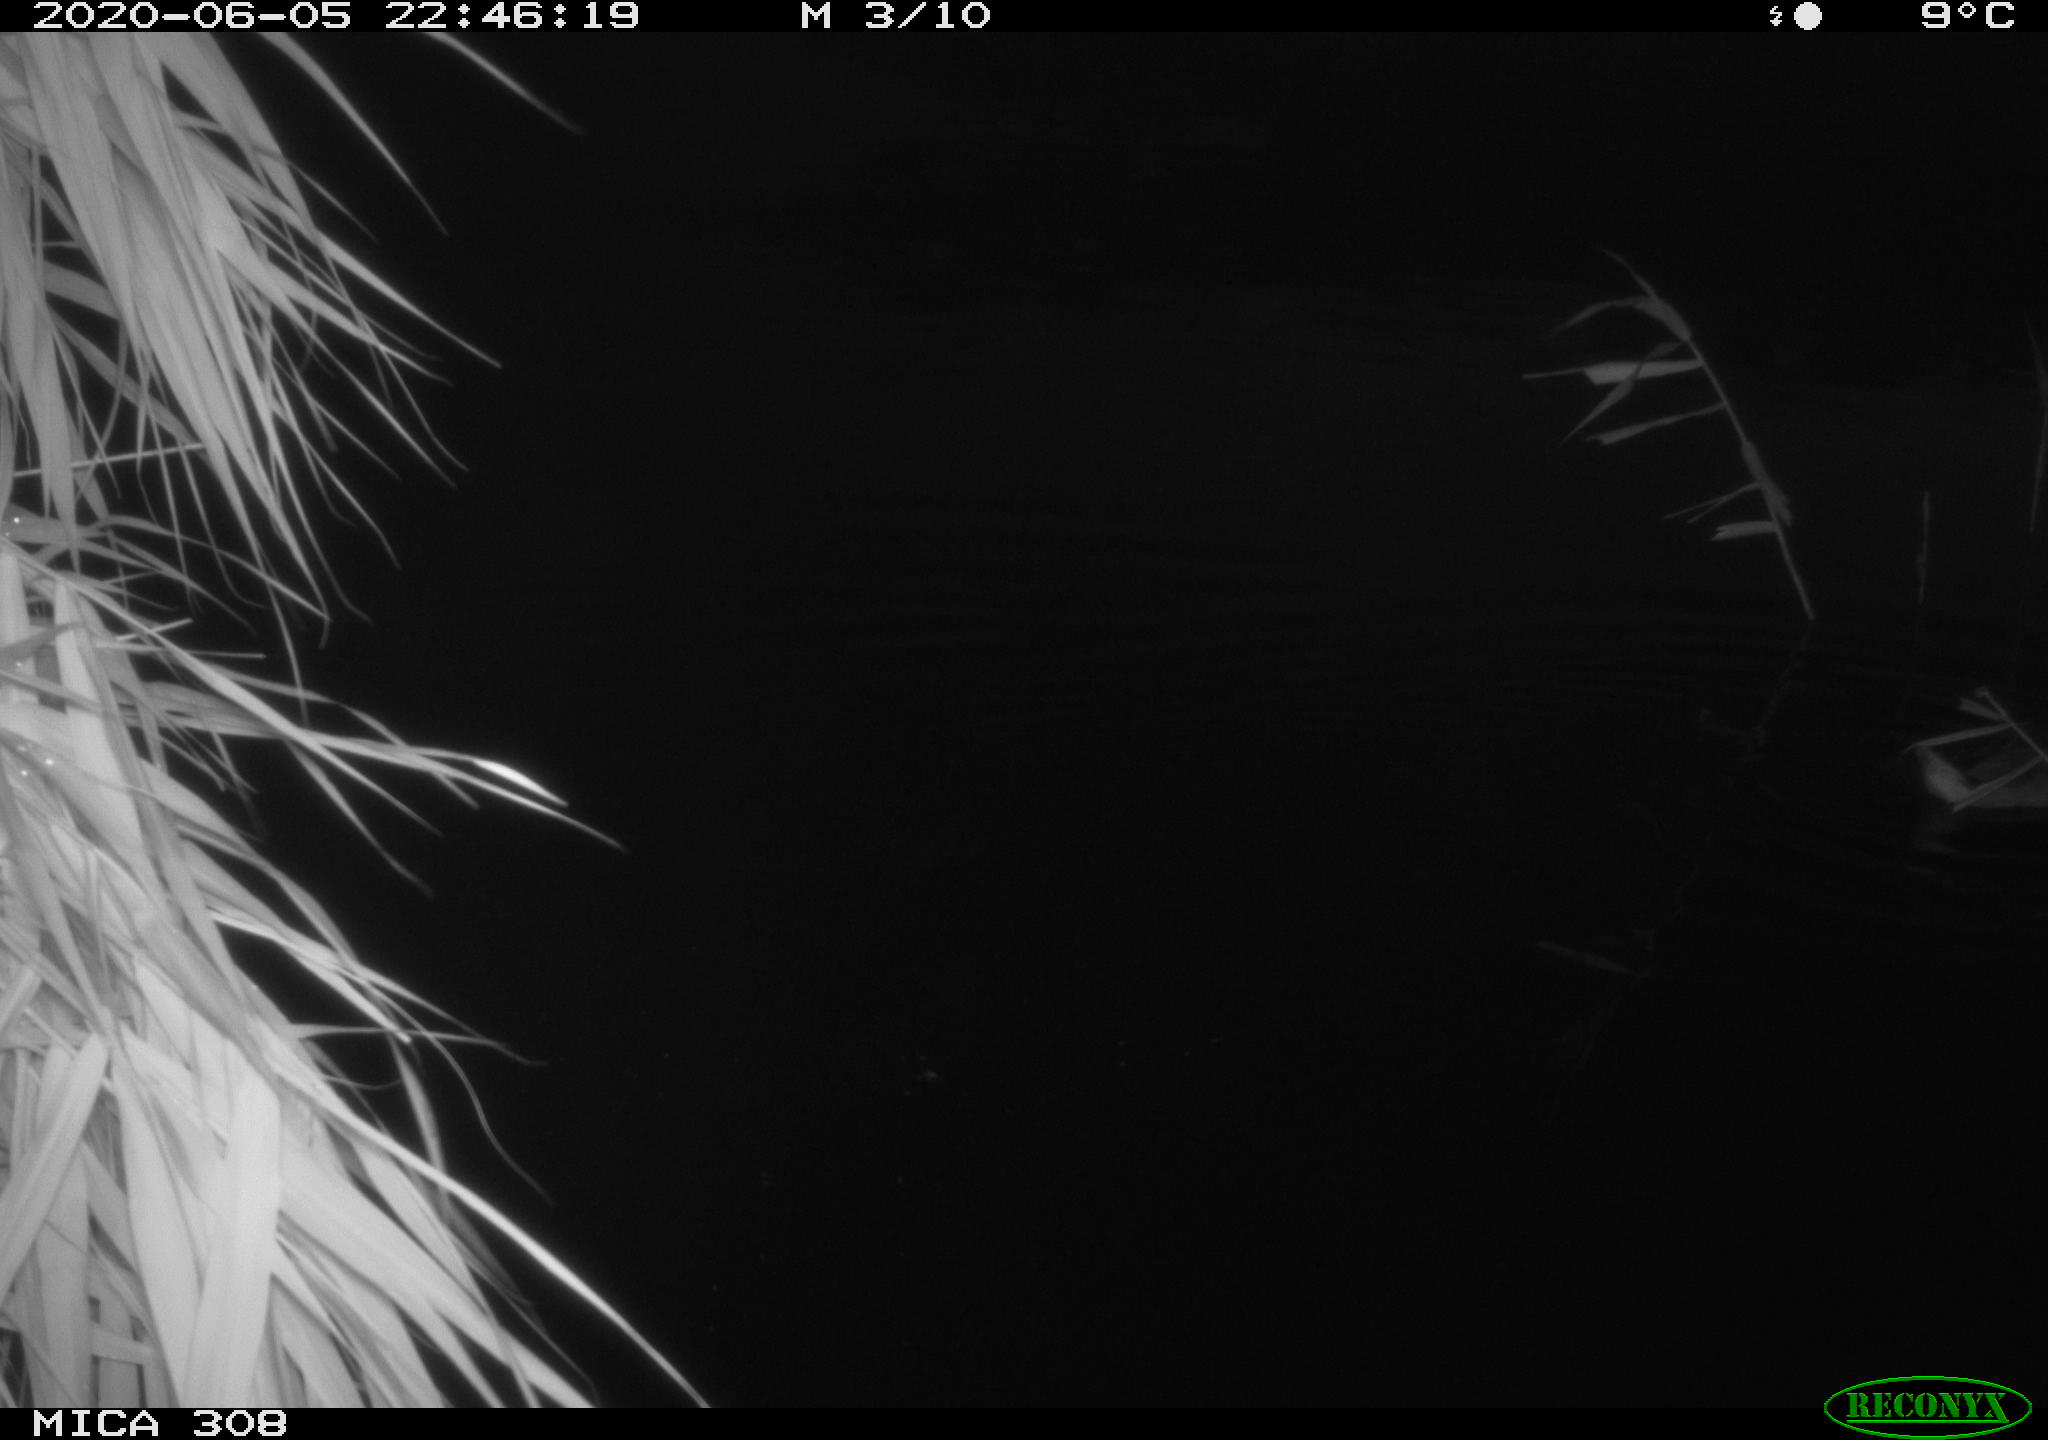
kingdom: Animalia
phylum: Chordata
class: Aves
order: Anseriformes
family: Anatidae
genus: Anas
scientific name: Anas platyrhynchos
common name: Mallard
